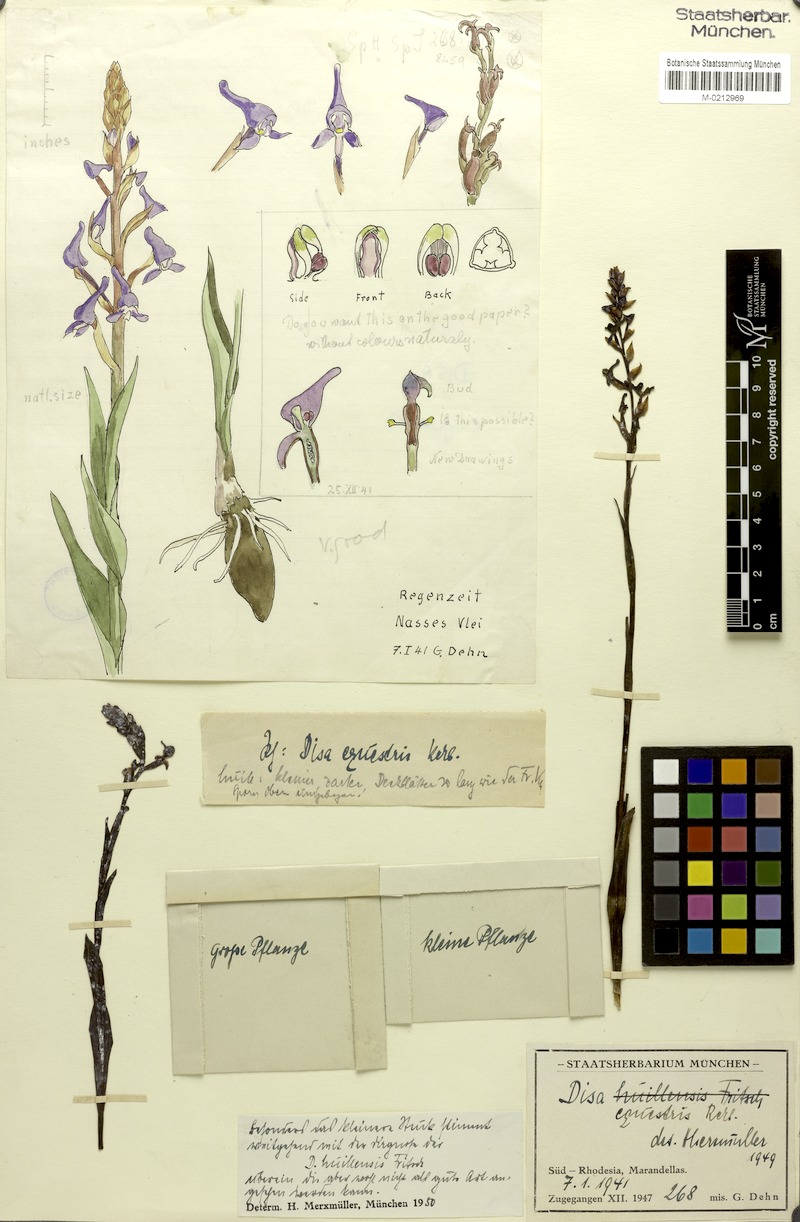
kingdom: Plantae
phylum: Tracheophyta
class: Liliopsida
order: Asparagales
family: Orchidaceae
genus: Disa
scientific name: Disa equestris
